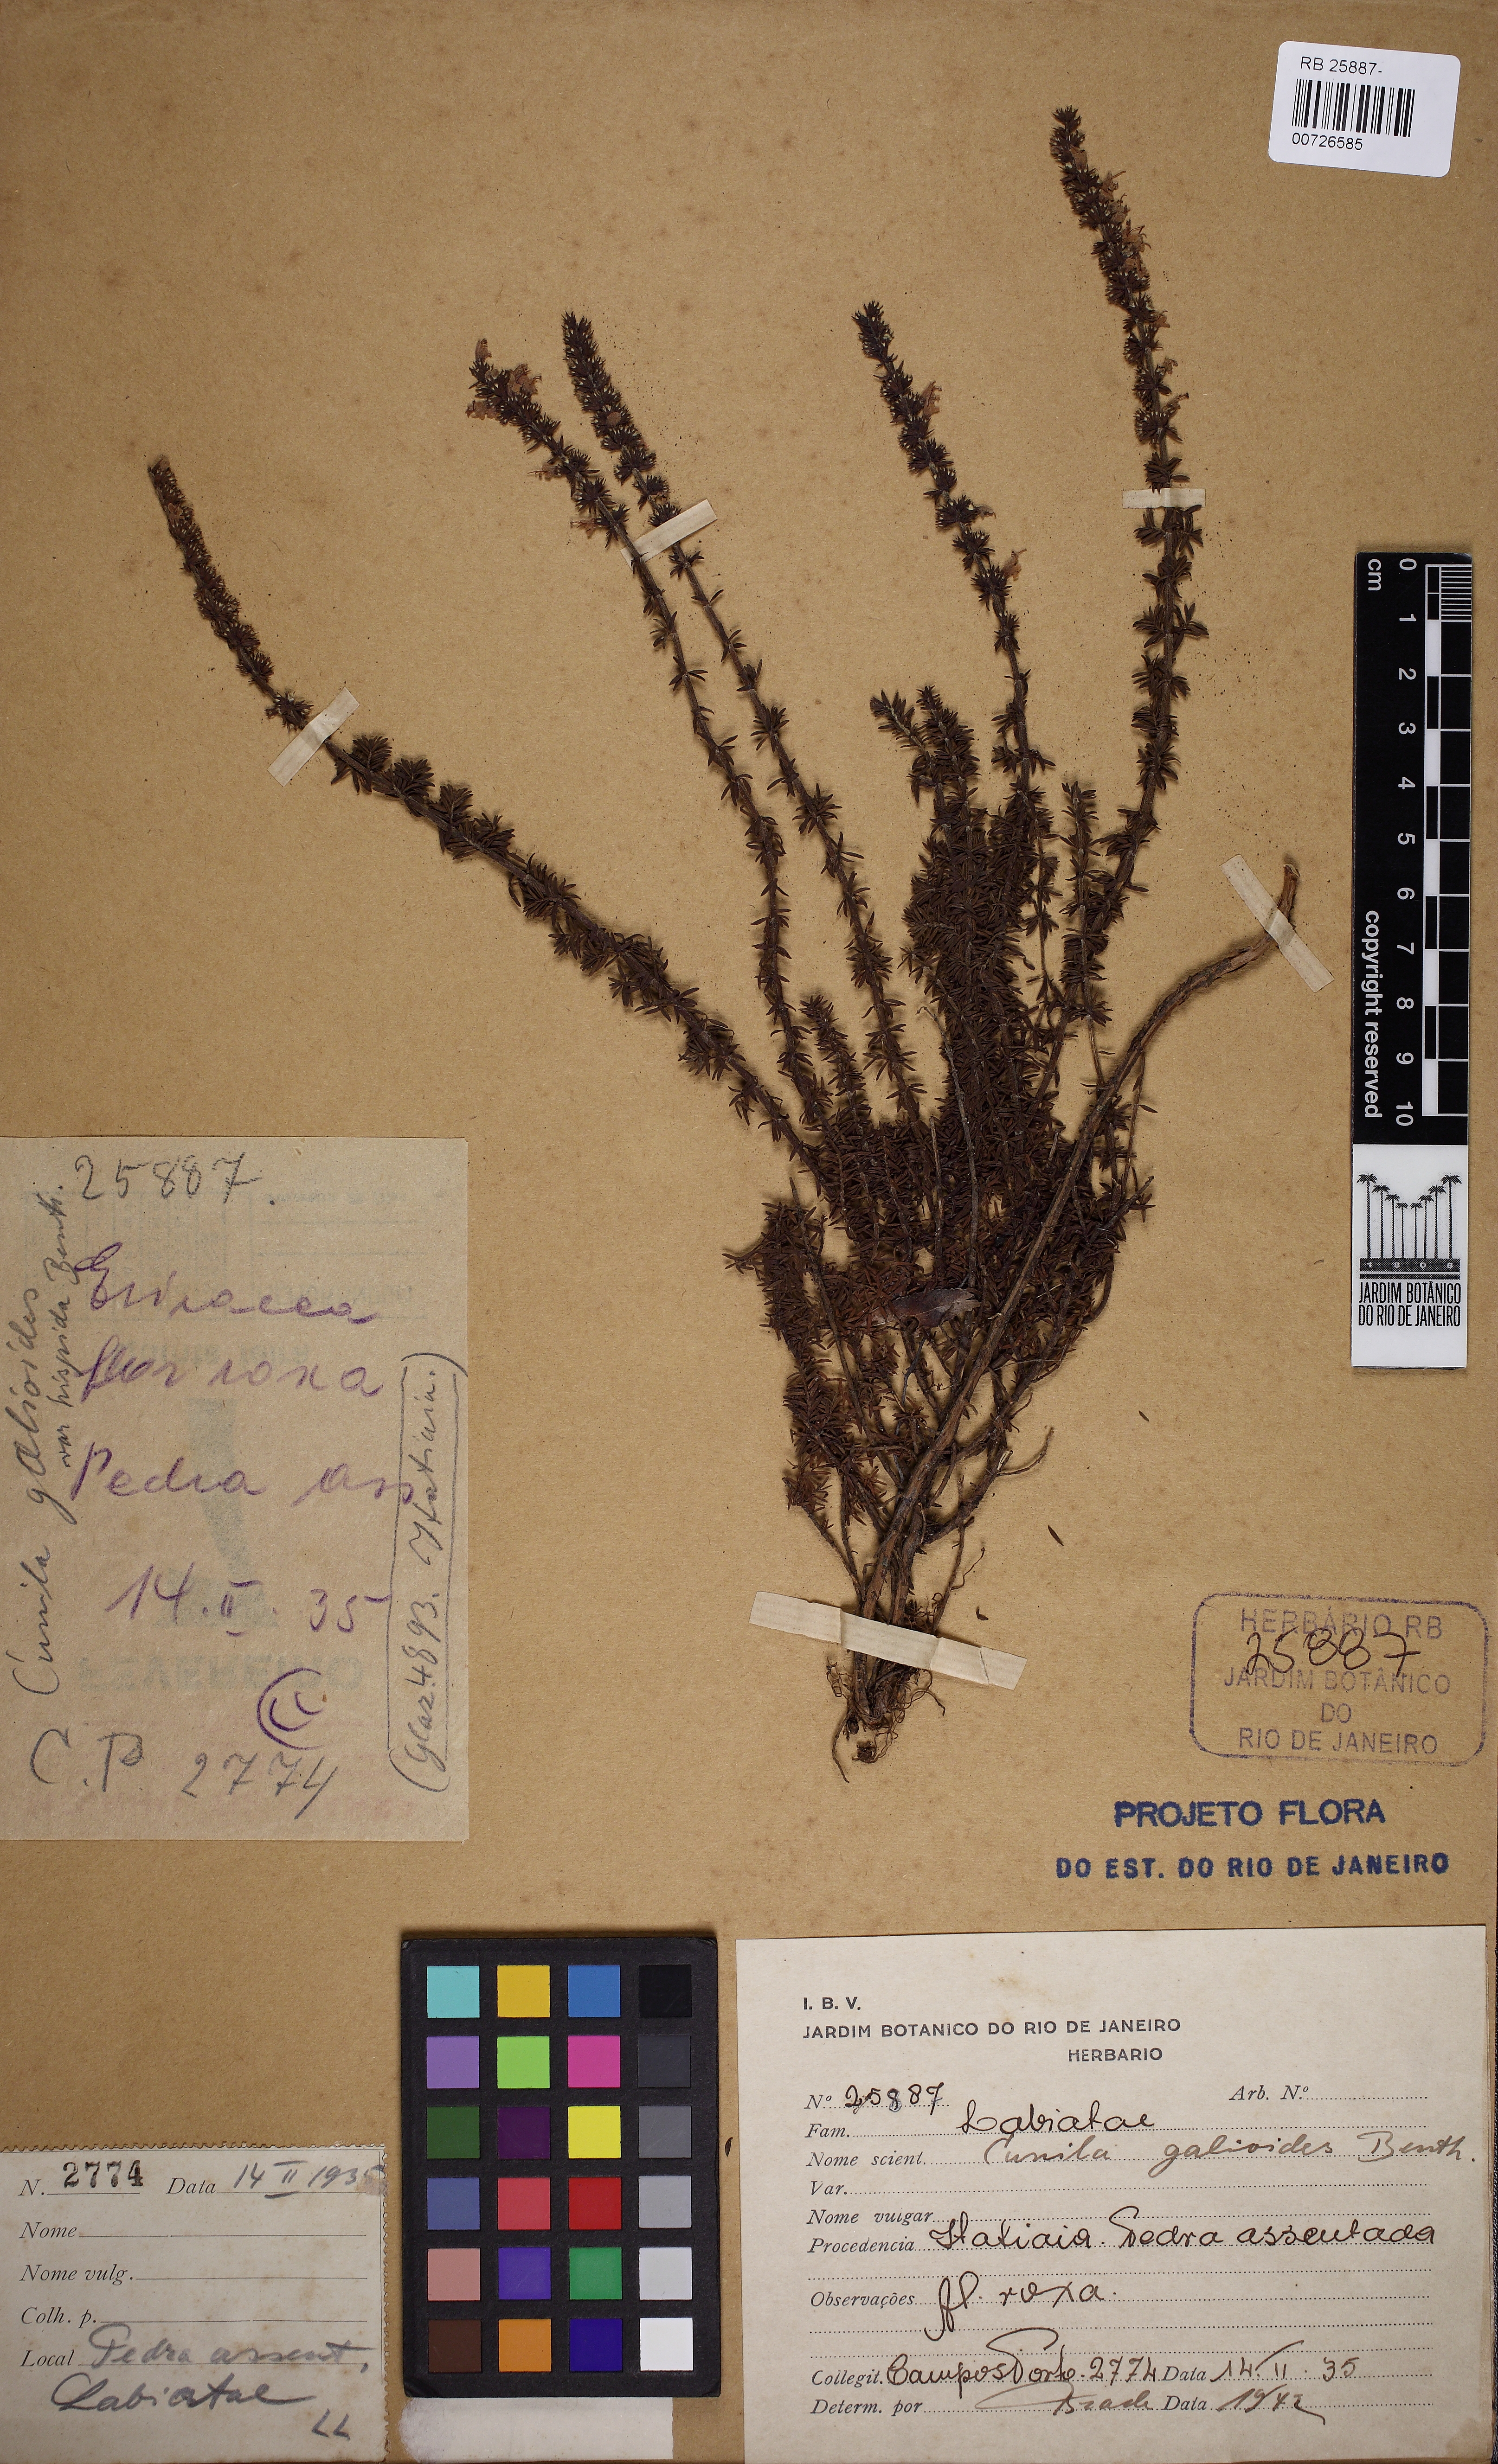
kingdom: Plantae
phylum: Tracheophyta
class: Magnoliopsida
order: Lamiales
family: Lamiaceae
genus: Cunila
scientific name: Cunila galioides
